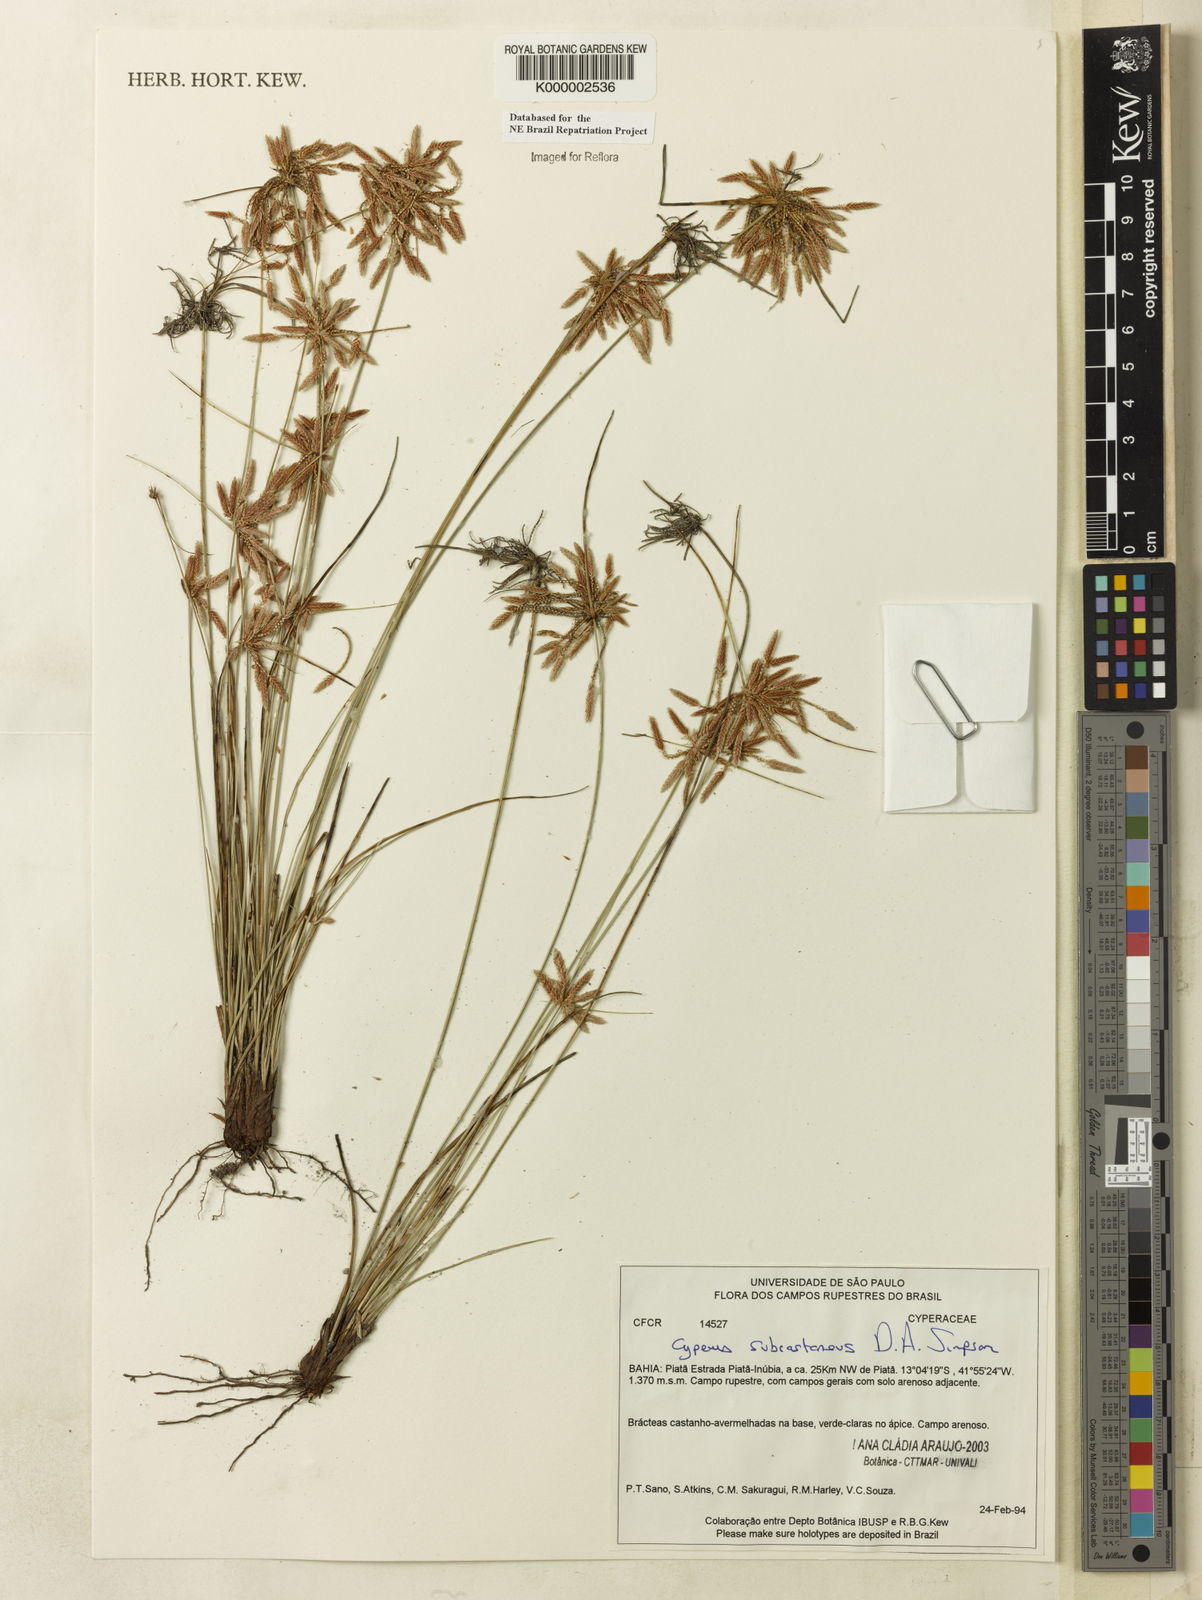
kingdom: Plantae
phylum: Tracheophyta
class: Liliopsida
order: Poales
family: Cyperaceae
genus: Cyperus
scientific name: Cyperus subcastaneus
